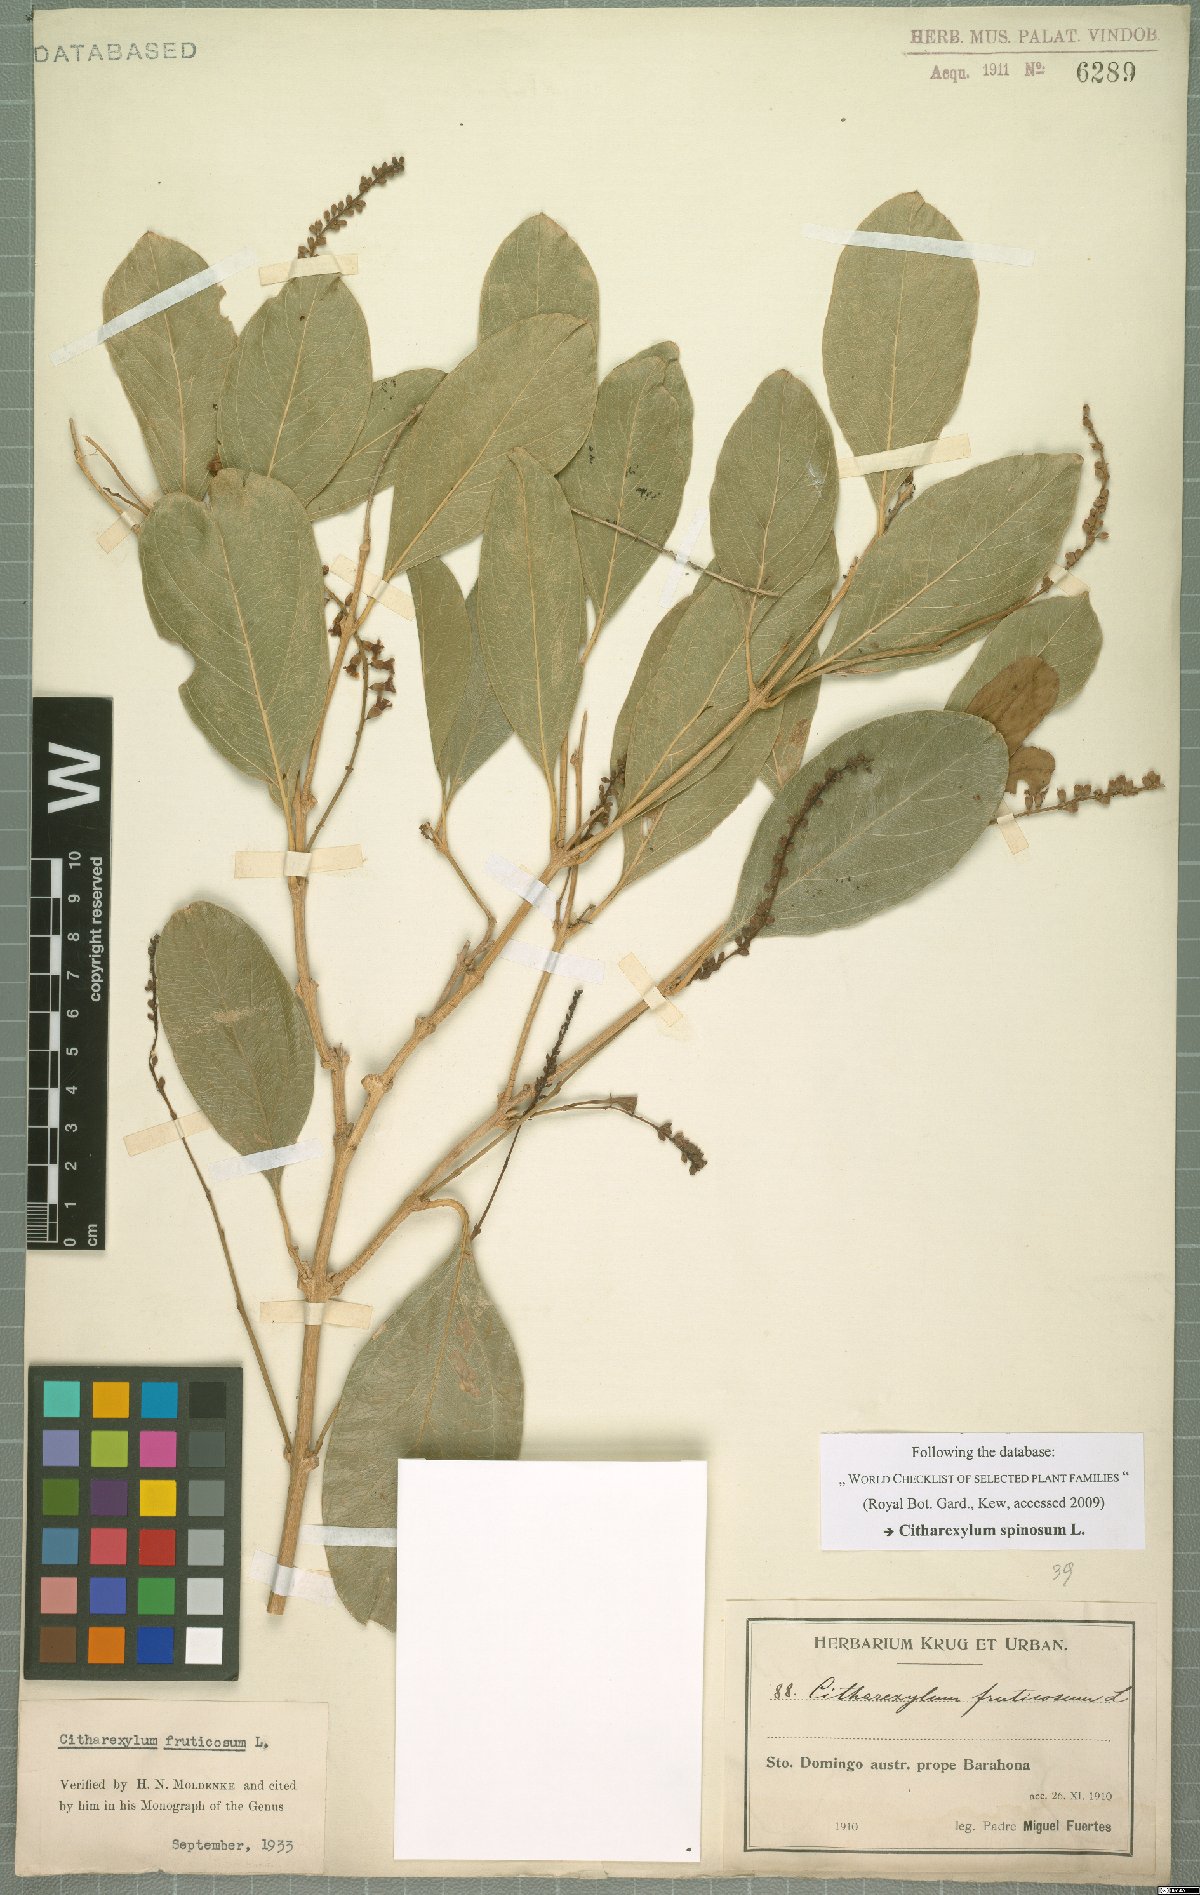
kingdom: Plantae
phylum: Tracheophyta
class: Magnoliopsida
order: Lamiales
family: Verbenaceae
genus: Citharexylum
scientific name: Citharexylum spinosum
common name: Fiddlewood
